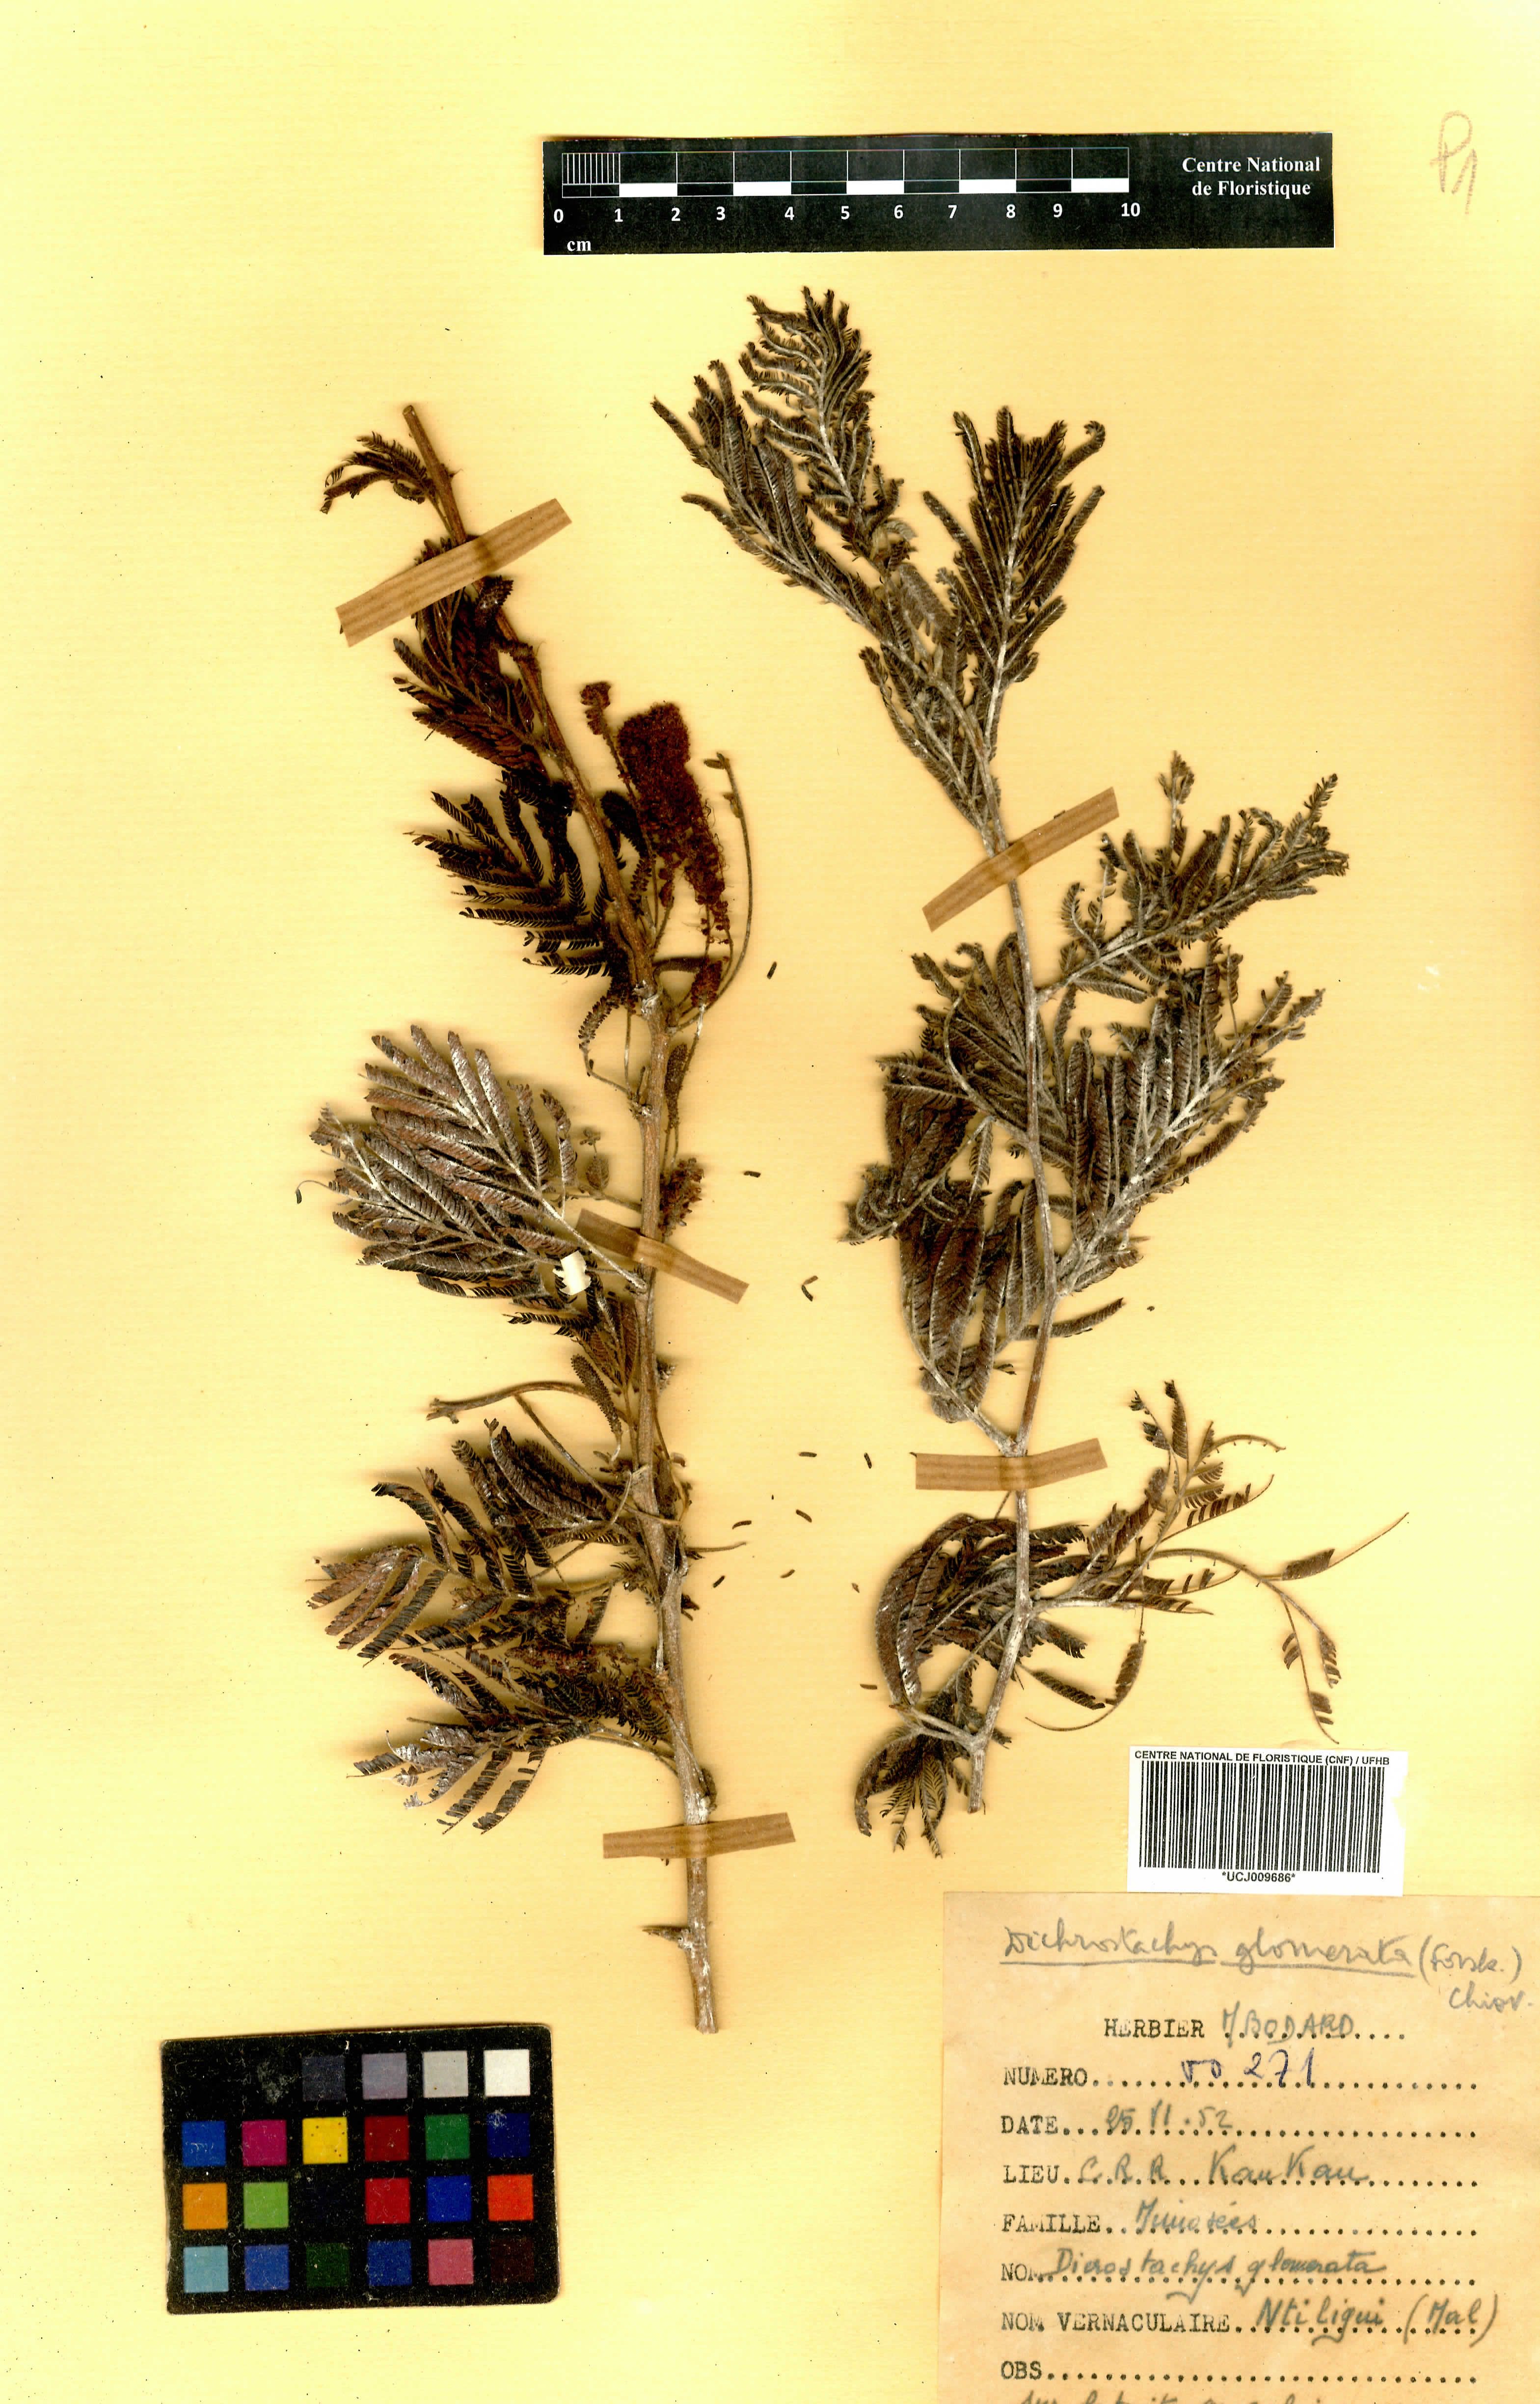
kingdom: Plantae
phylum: Tracheophyta
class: Magnoliopsida
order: Fabales
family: Fabaceae
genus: Dichrostachys
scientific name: Dichrostachys cinerea
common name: Sicklebush
